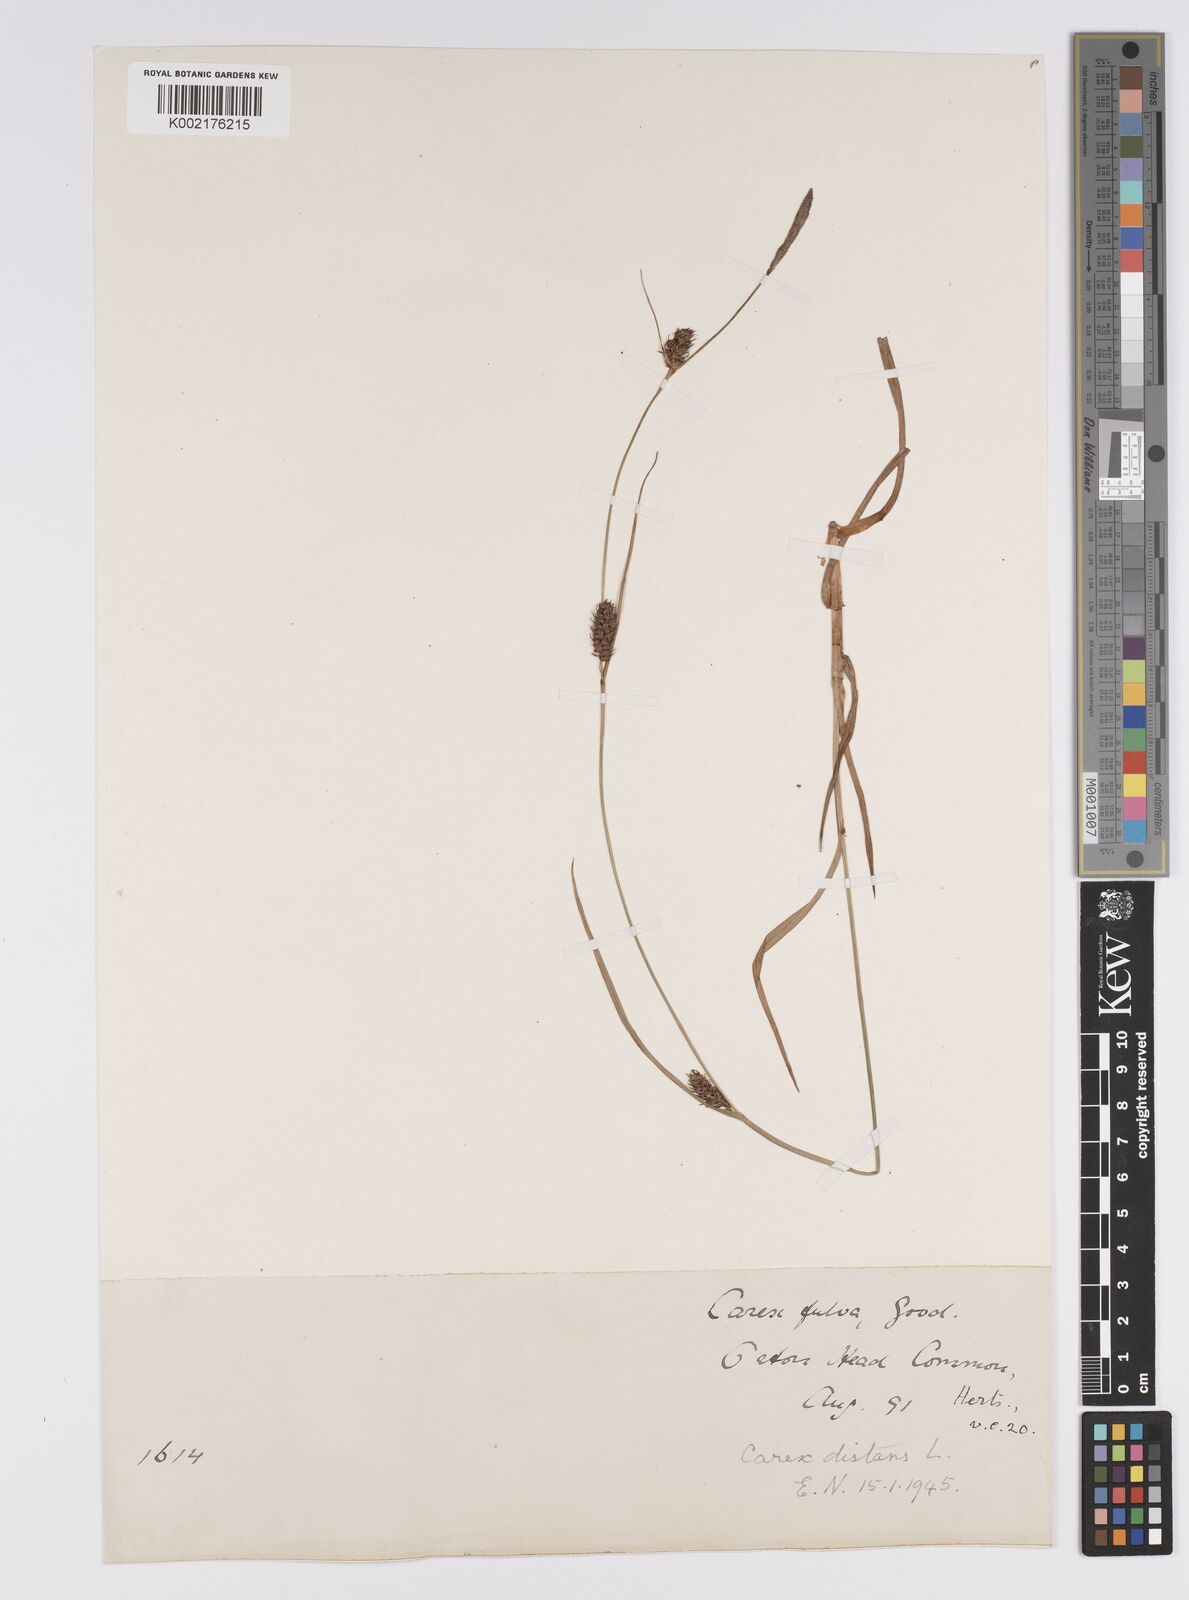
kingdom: Plantae
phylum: Tracheophyta
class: Liliopsida
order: Poales
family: Cyperaceae
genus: Carex
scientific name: Carex distans
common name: Distant sedge
